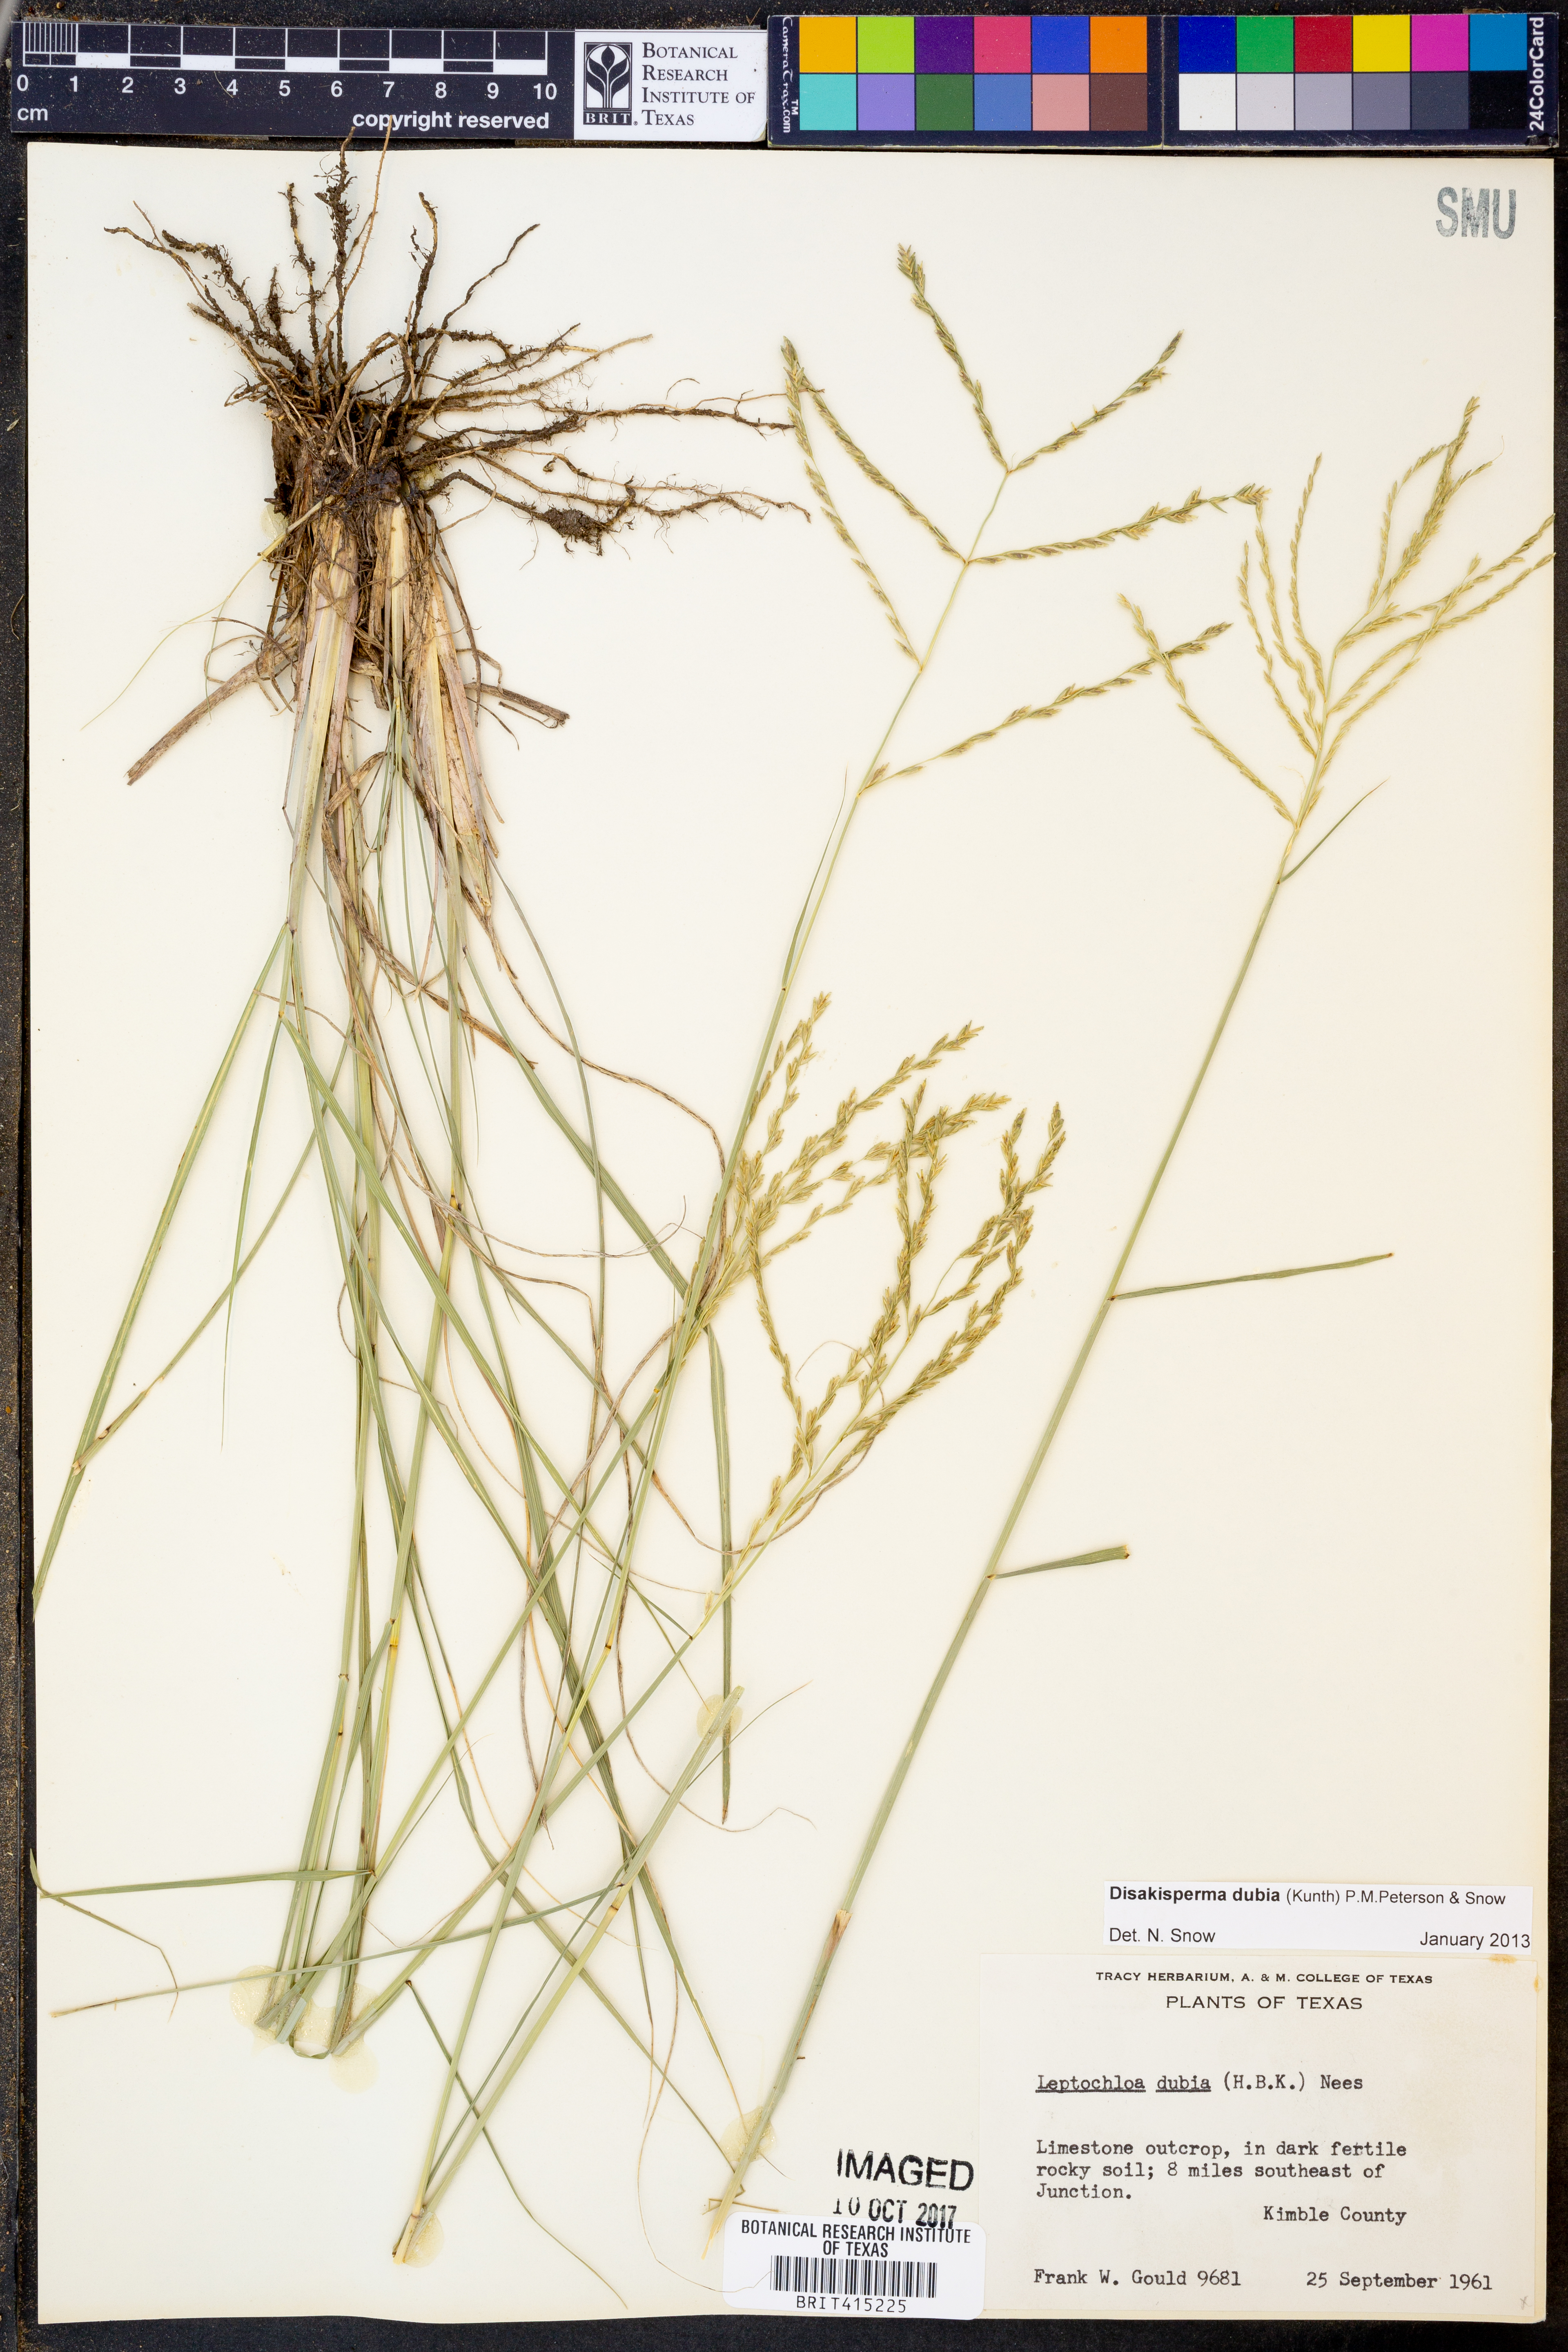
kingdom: Plantae
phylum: Tracheophyta
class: Liliopsida
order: Poales
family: Poaceae
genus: Disakisperma
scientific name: Disakisperma dubium
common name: Green sprangletop
